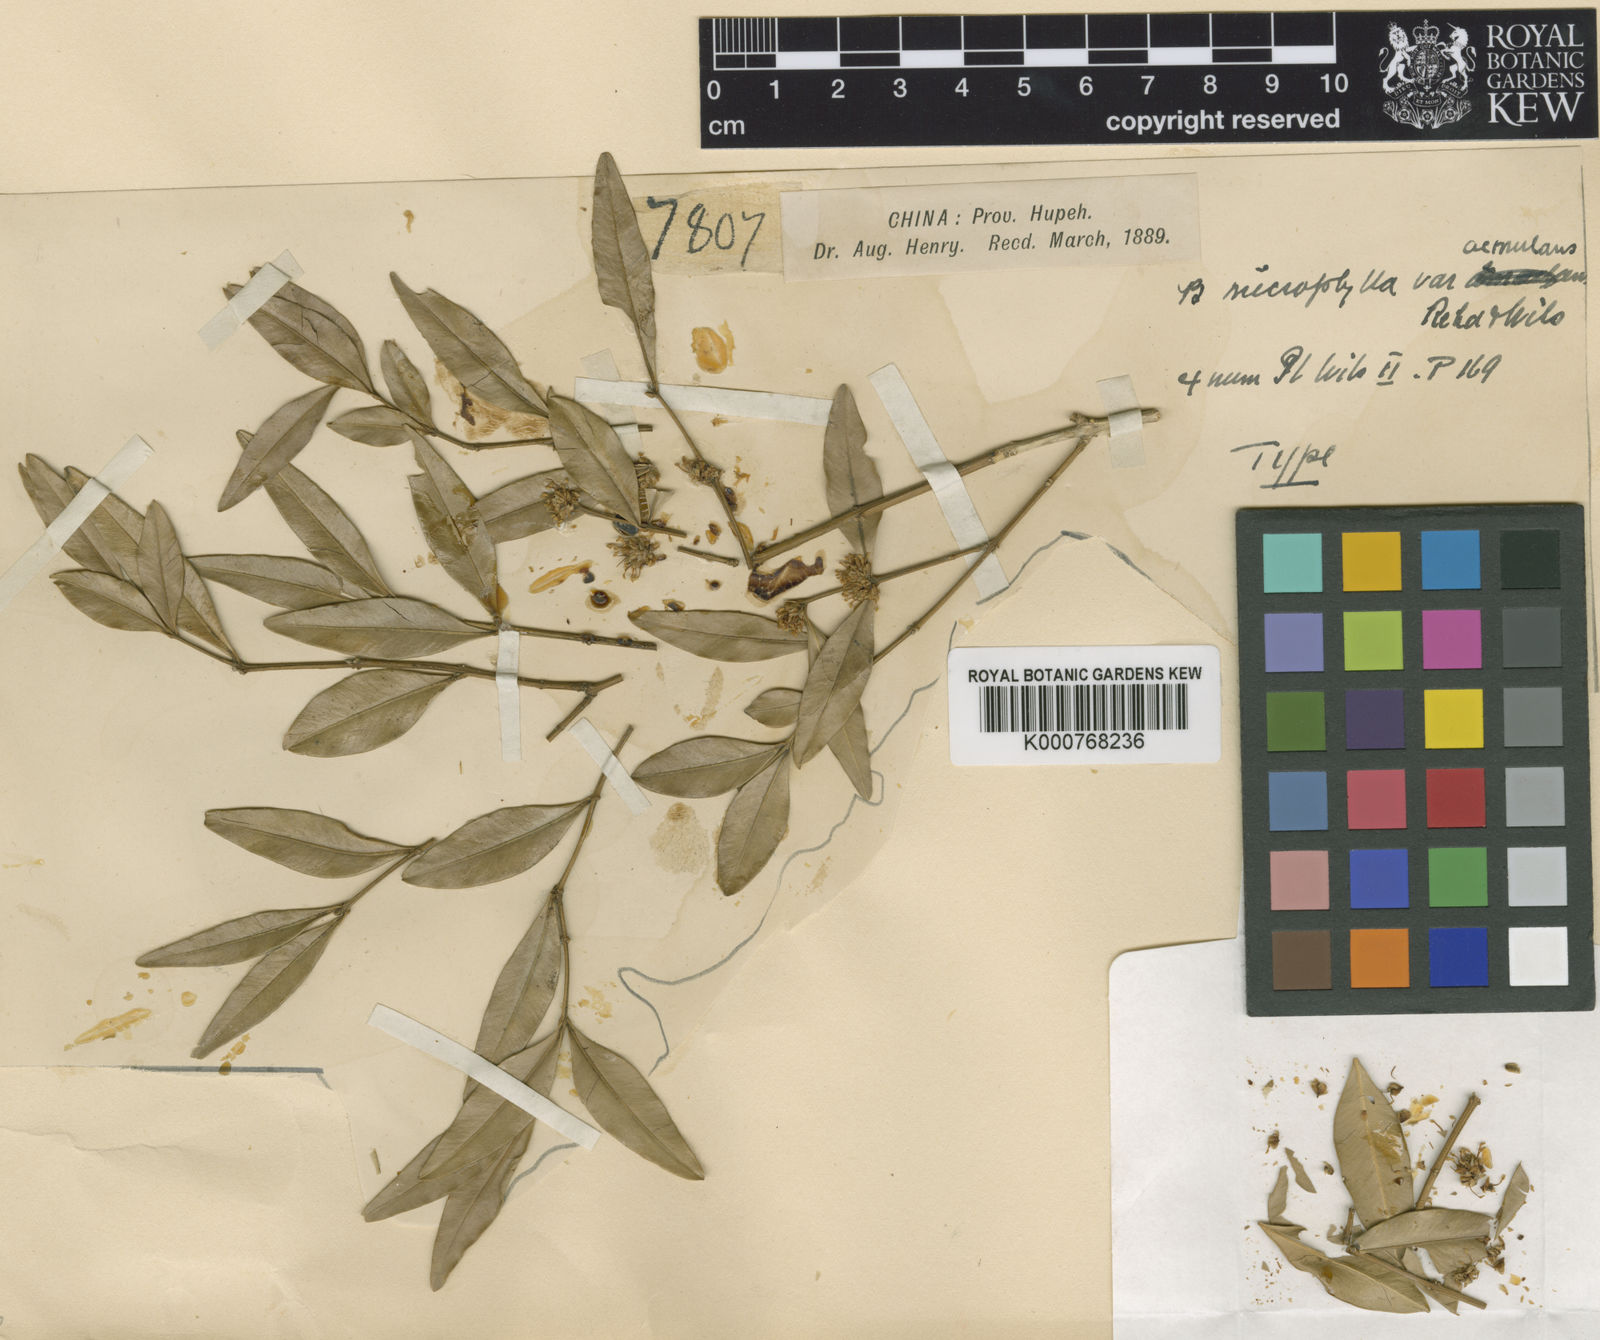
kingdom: Plantae
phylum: Tracheophyta
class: Magnoliopsida
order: Buxales
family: Buxaceae
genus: Buxus
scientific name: Buxus sinica
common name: Chinese boxwood
